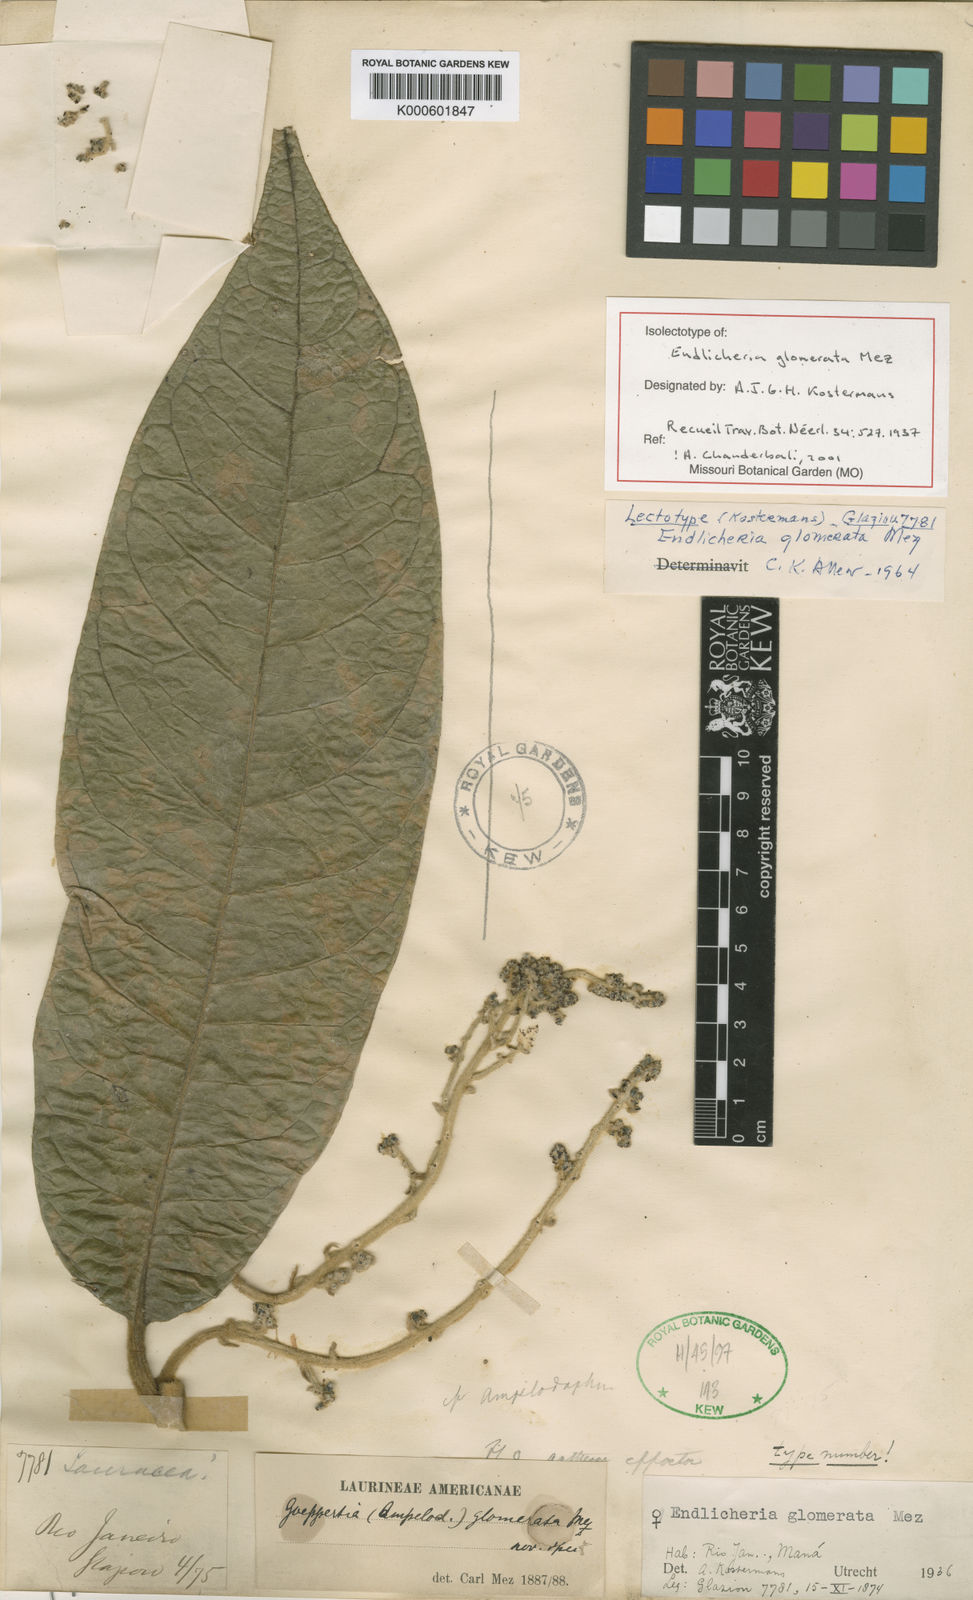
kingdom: Plantae
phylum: Tracheophyta
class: Magnoliopsida
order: Laurales
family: Lauraceae
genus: Endlicheria
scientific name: Endlicheria glomerata
